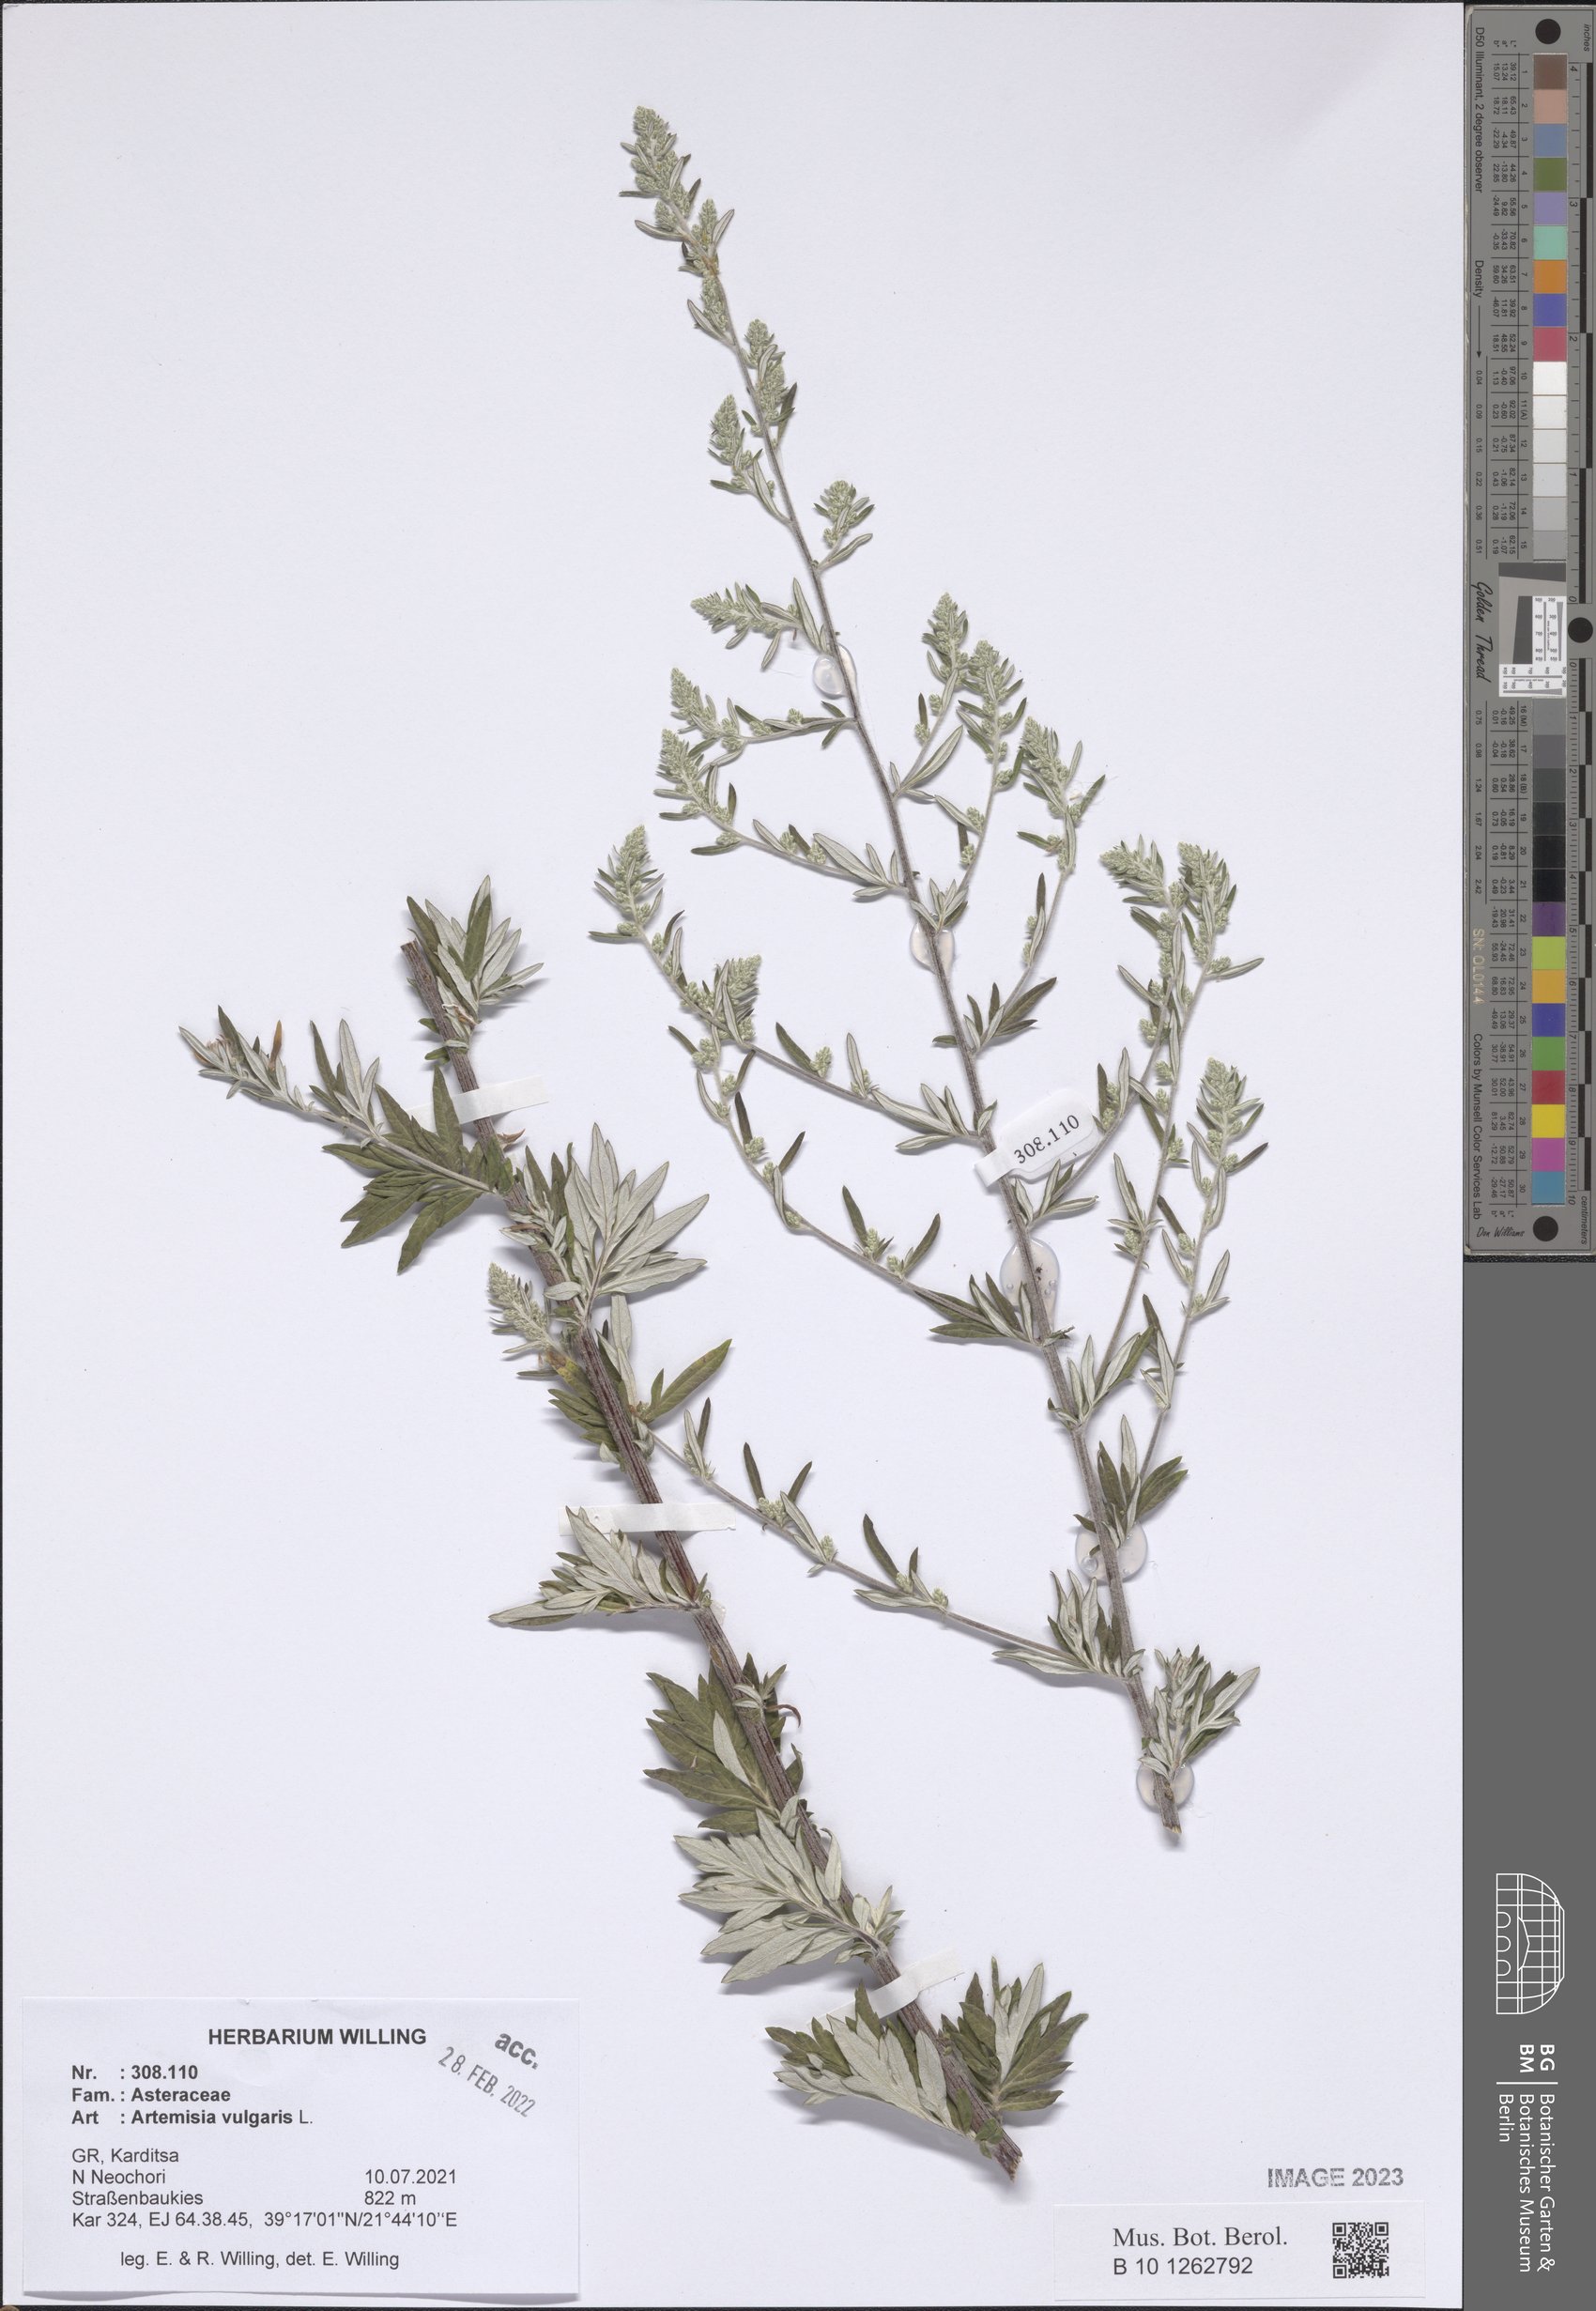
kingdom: Plantae
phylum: Tracheophyta
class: Magnoliopsida
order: Asterales
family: Asteraceae
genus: Artemisia
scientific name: Artemisia vulgaris
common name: Mugwort
